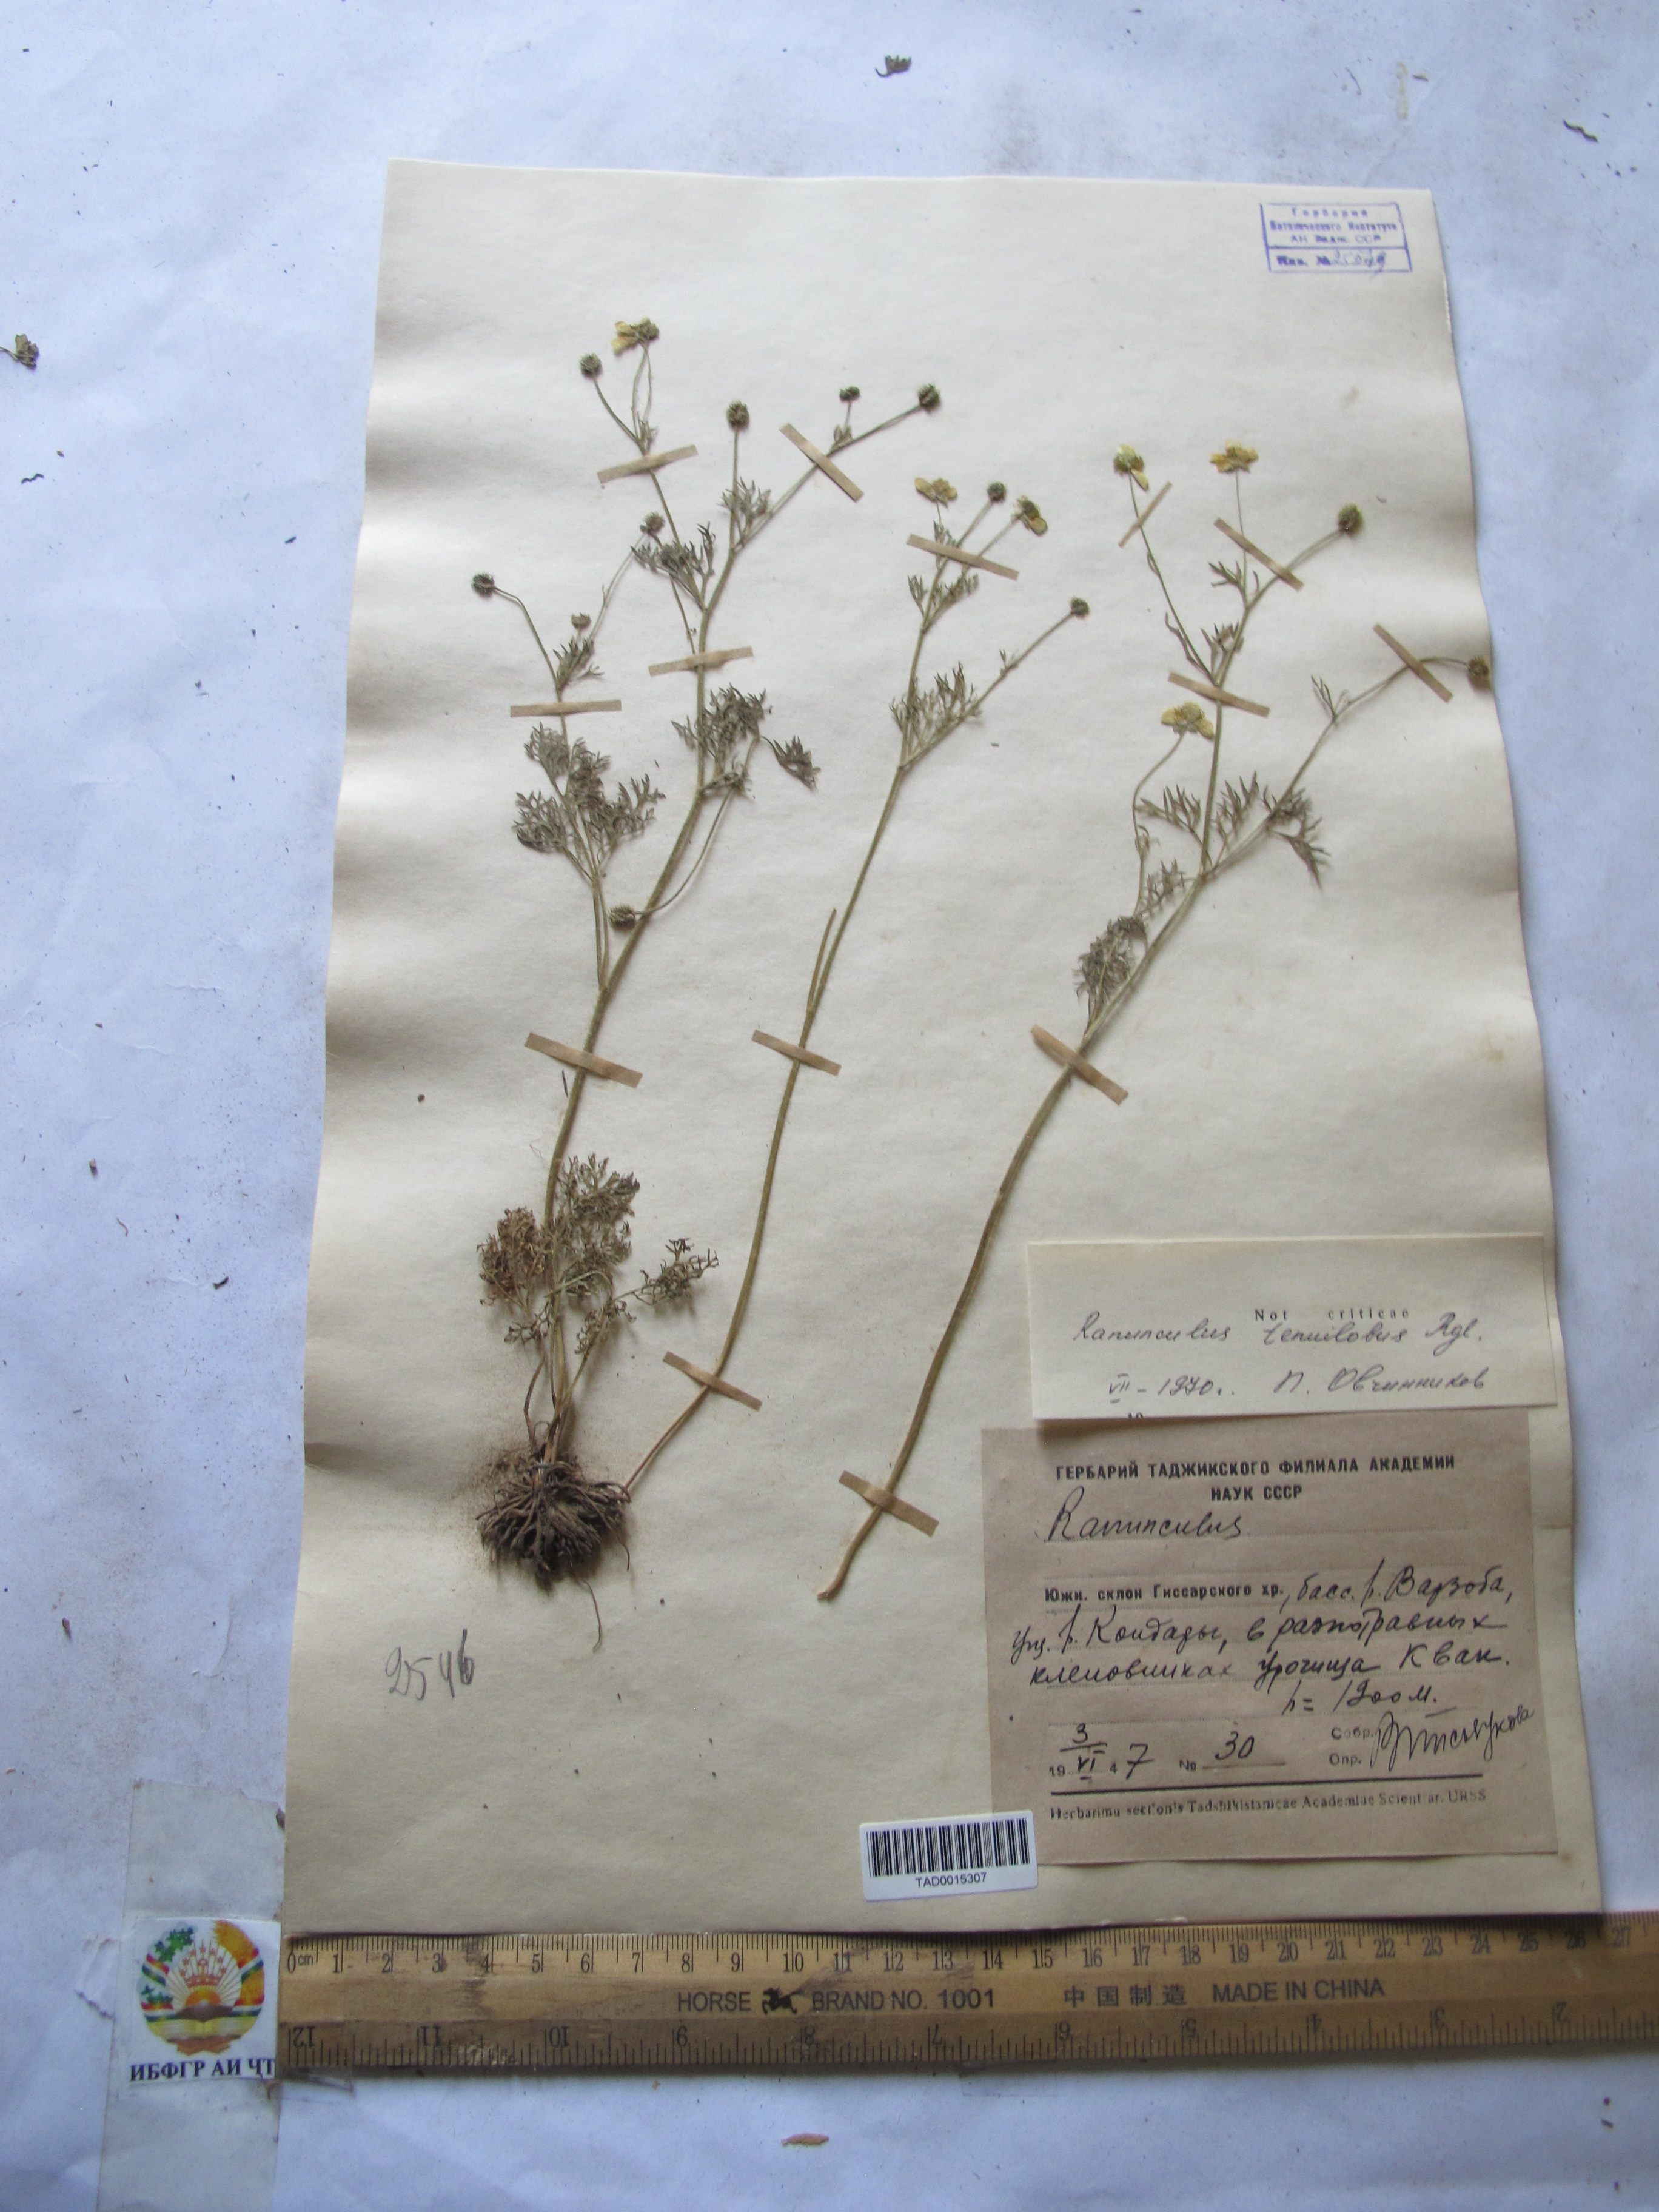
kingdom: Plantae
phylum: Tracheophyta
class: Magnoliopsida
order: Ranunculales
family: Ranunculaceae
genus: Ranunculus
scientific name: Ranunculus tenuilobus
